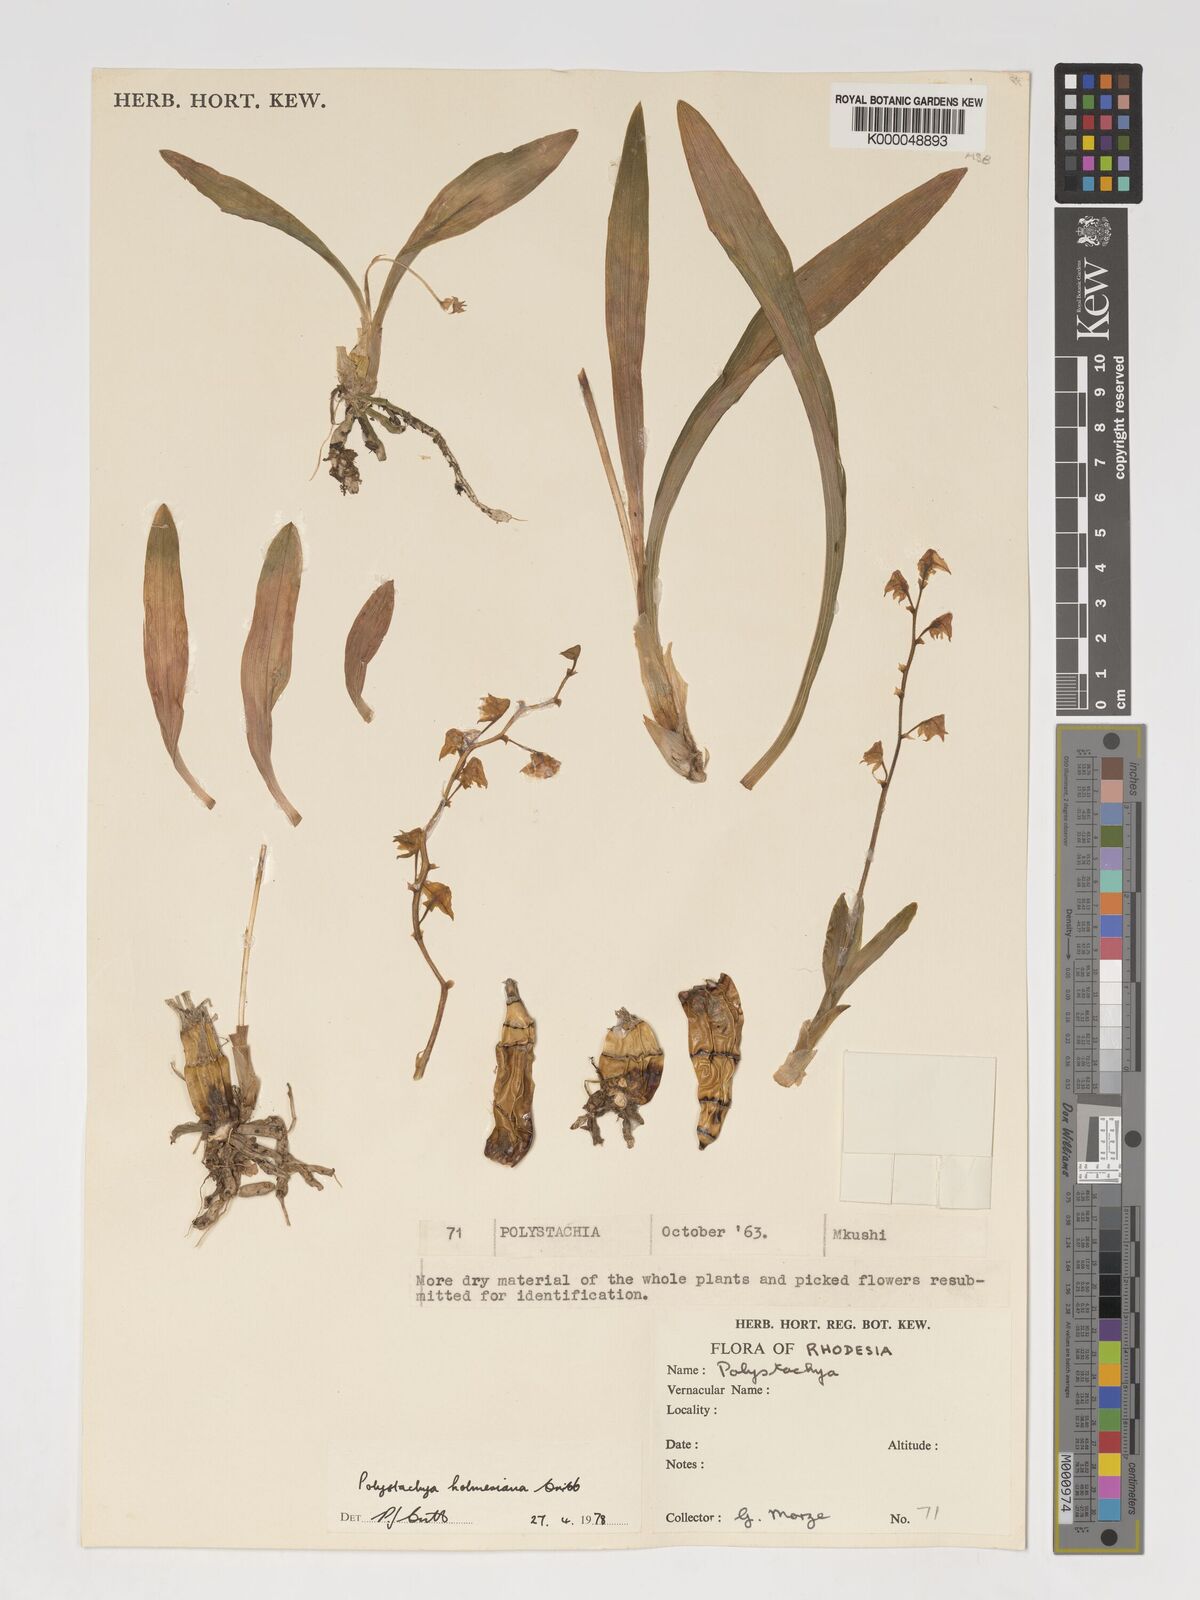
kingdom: Plantae
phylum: Tracheophyta
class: Liliopsida
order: Asparagales
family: Orchidaceae
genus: Polystachya
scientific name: Polystachya holmesiana
